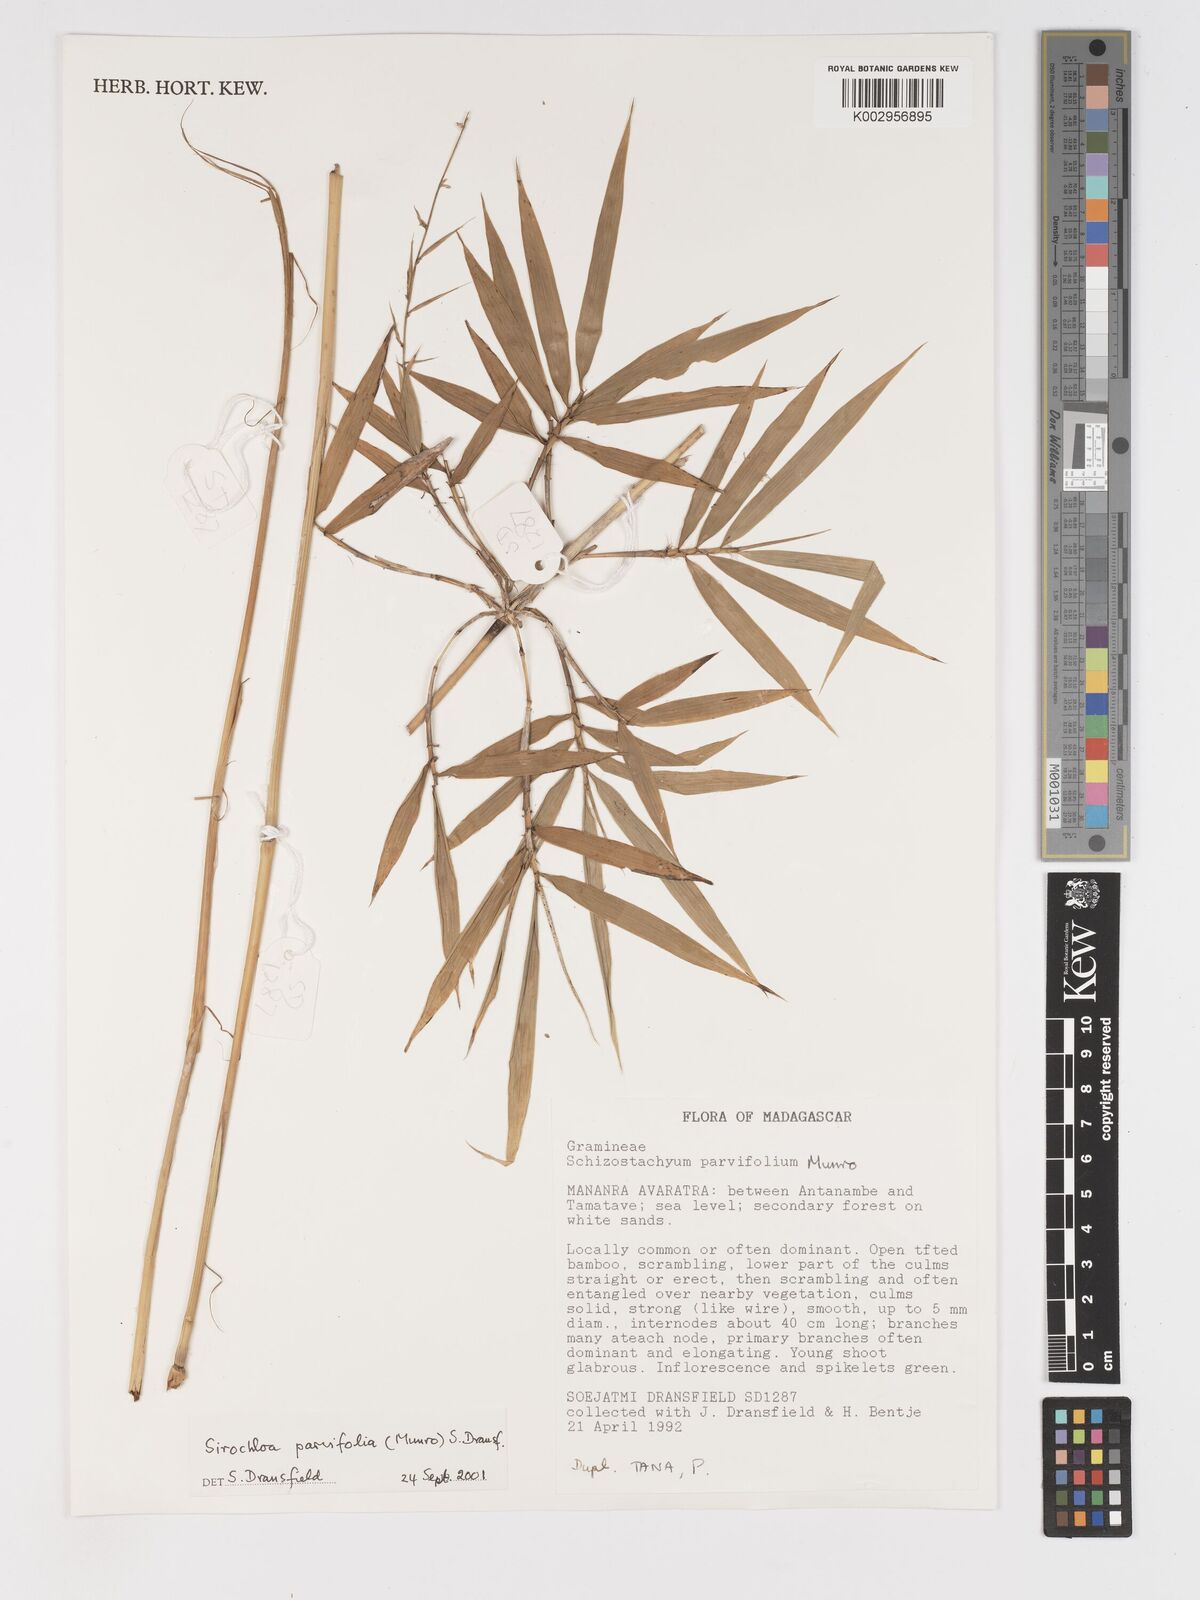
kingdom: Plantae
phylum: Tracheophyta
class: Liliopsida
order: Poales
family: Poaceae
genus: Sirochloa
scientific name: Sirochloa parvifolia
